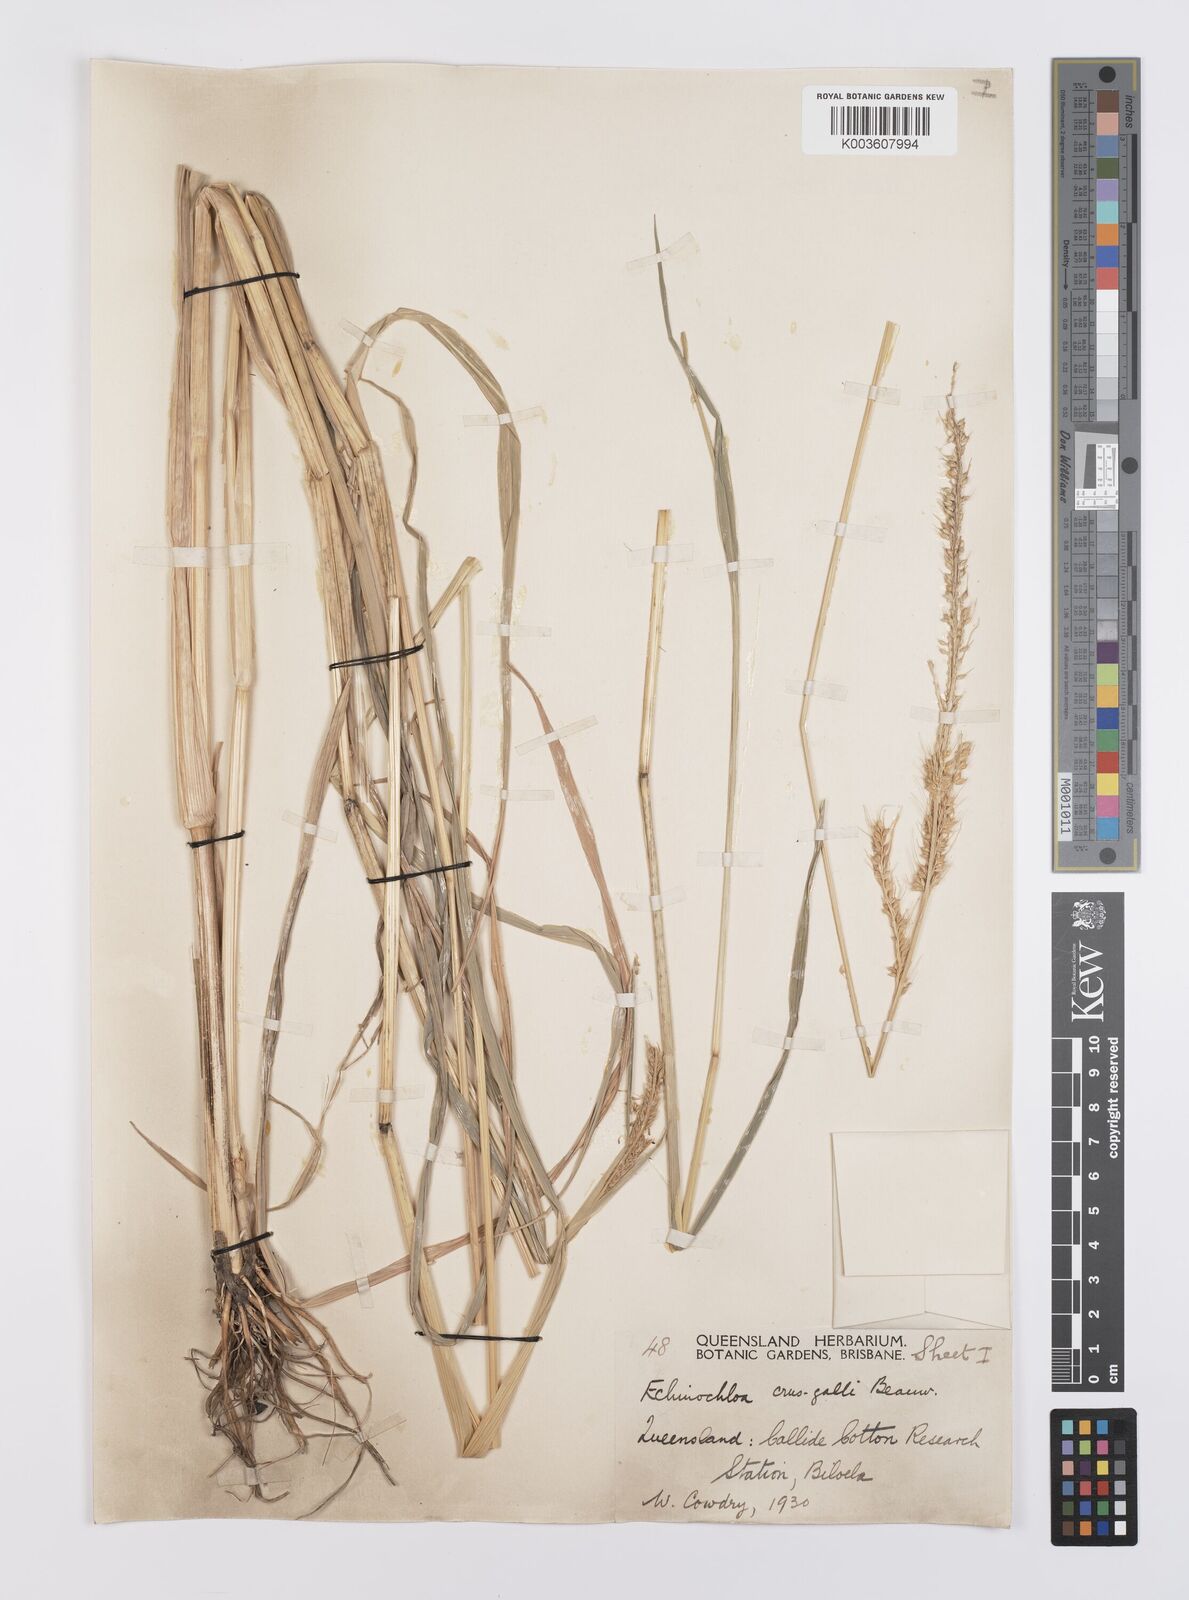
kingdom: Plantae
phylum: Tracheophyta
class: Liliopsida
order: Poales
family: Poaceae
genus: Echinochloa
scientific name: Echinochloa crus-galli
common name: Cockspur
